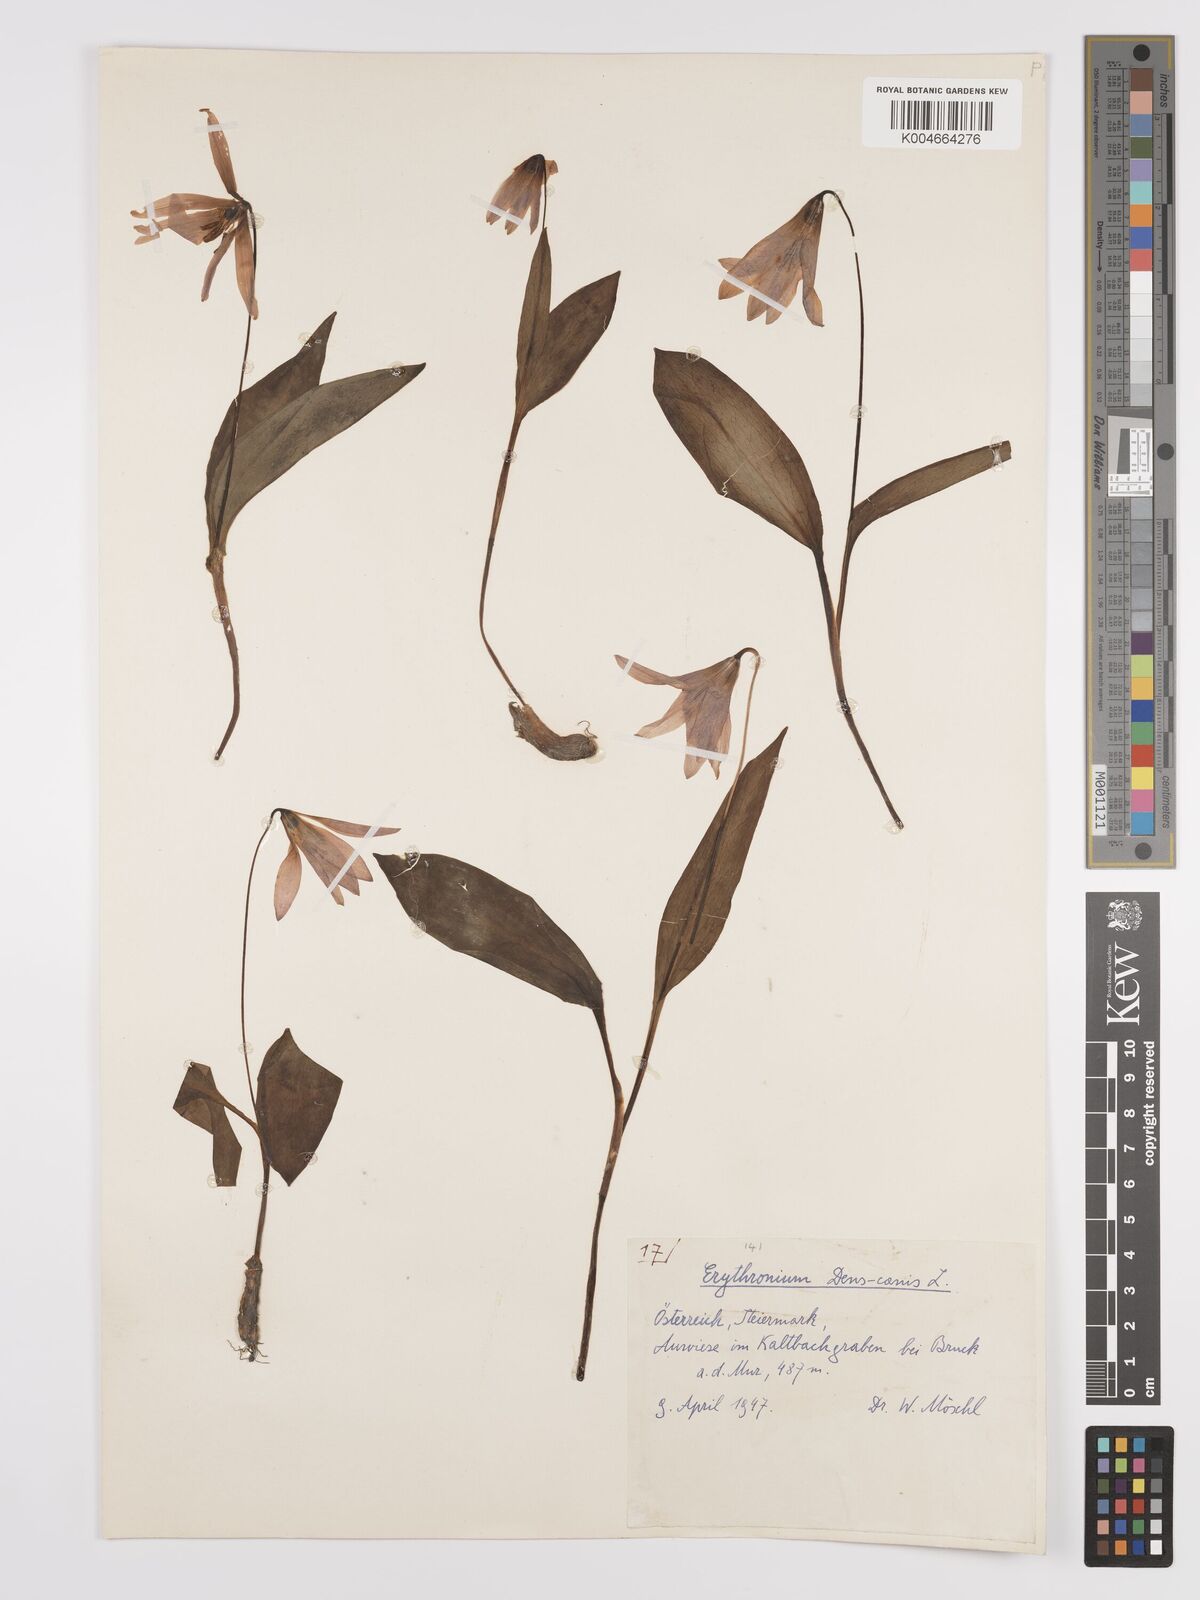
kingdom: Plantae
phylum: Tracheophyta
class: Liliopsida
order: Liliales
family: Liliaceae
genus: Erythronium
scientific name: Erythronium dens-canis
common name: Dog's-tooth-violet
